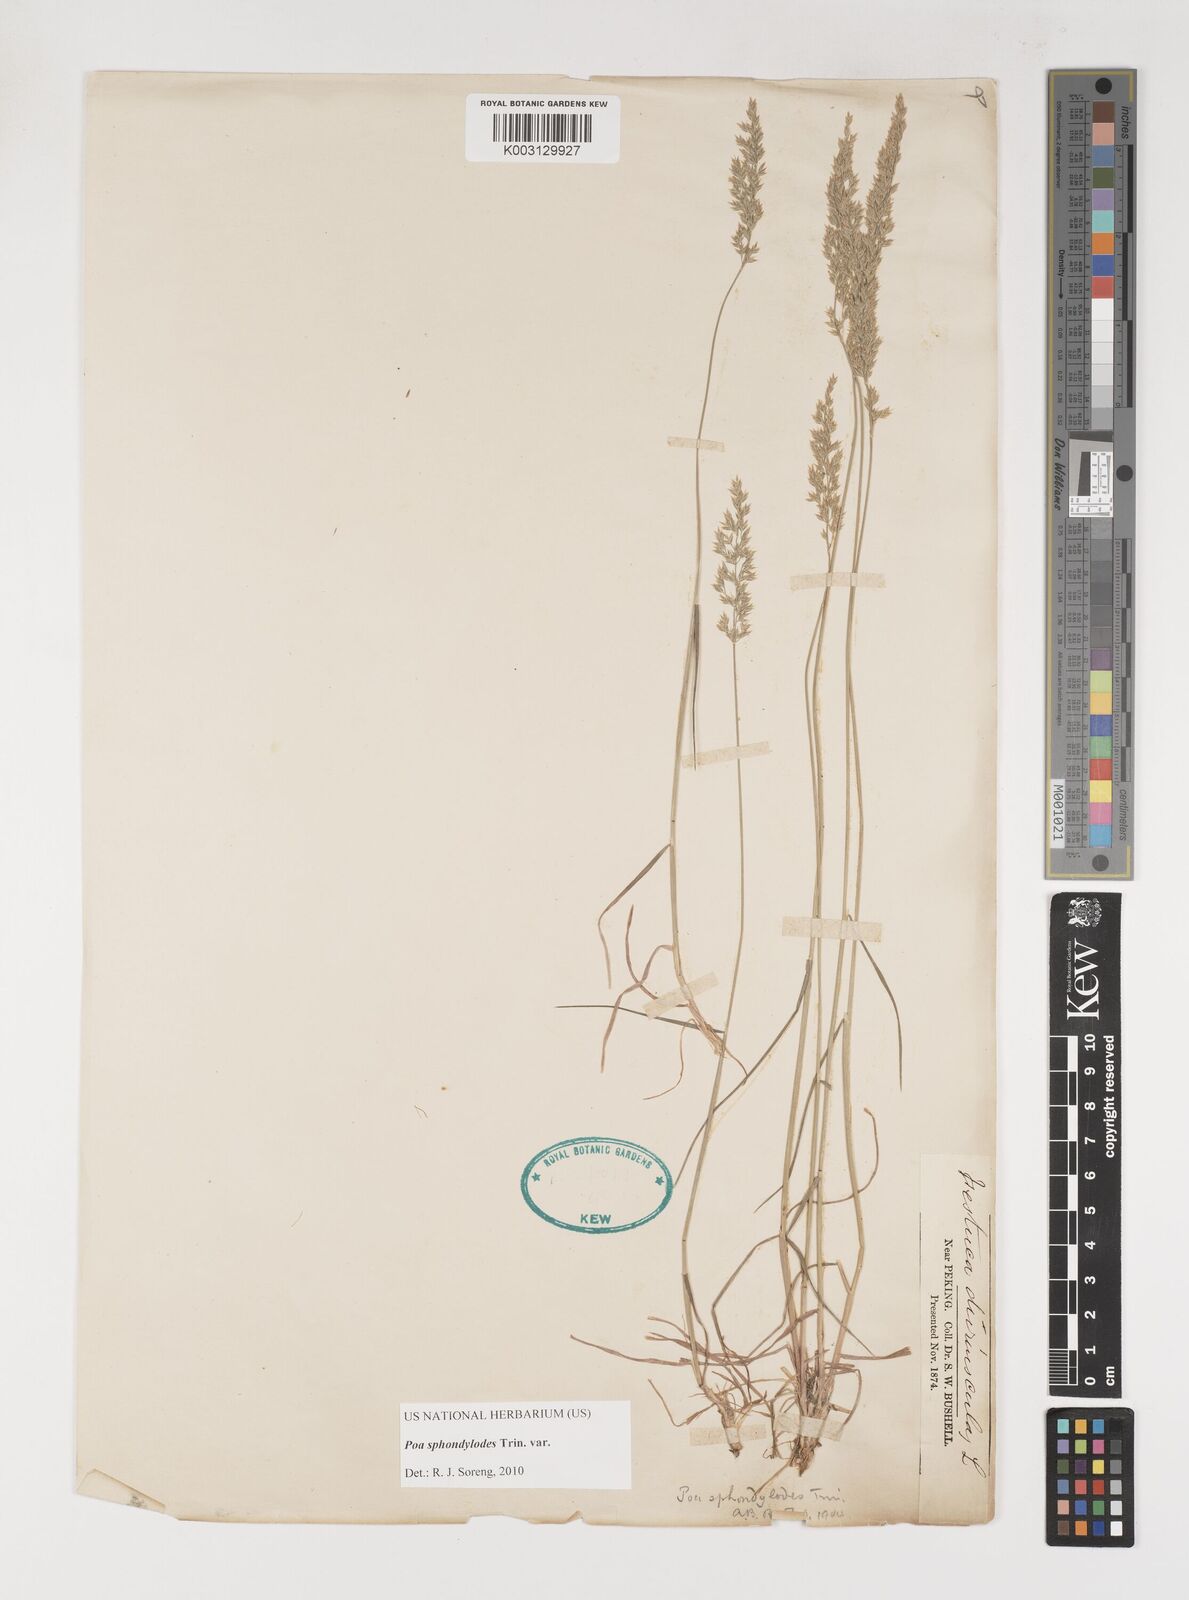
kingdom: Plantae
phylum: Tracheophyta
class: Liliopsida
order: Poales
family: Poaceae
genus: Poa
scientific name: Poa sphondylodes
